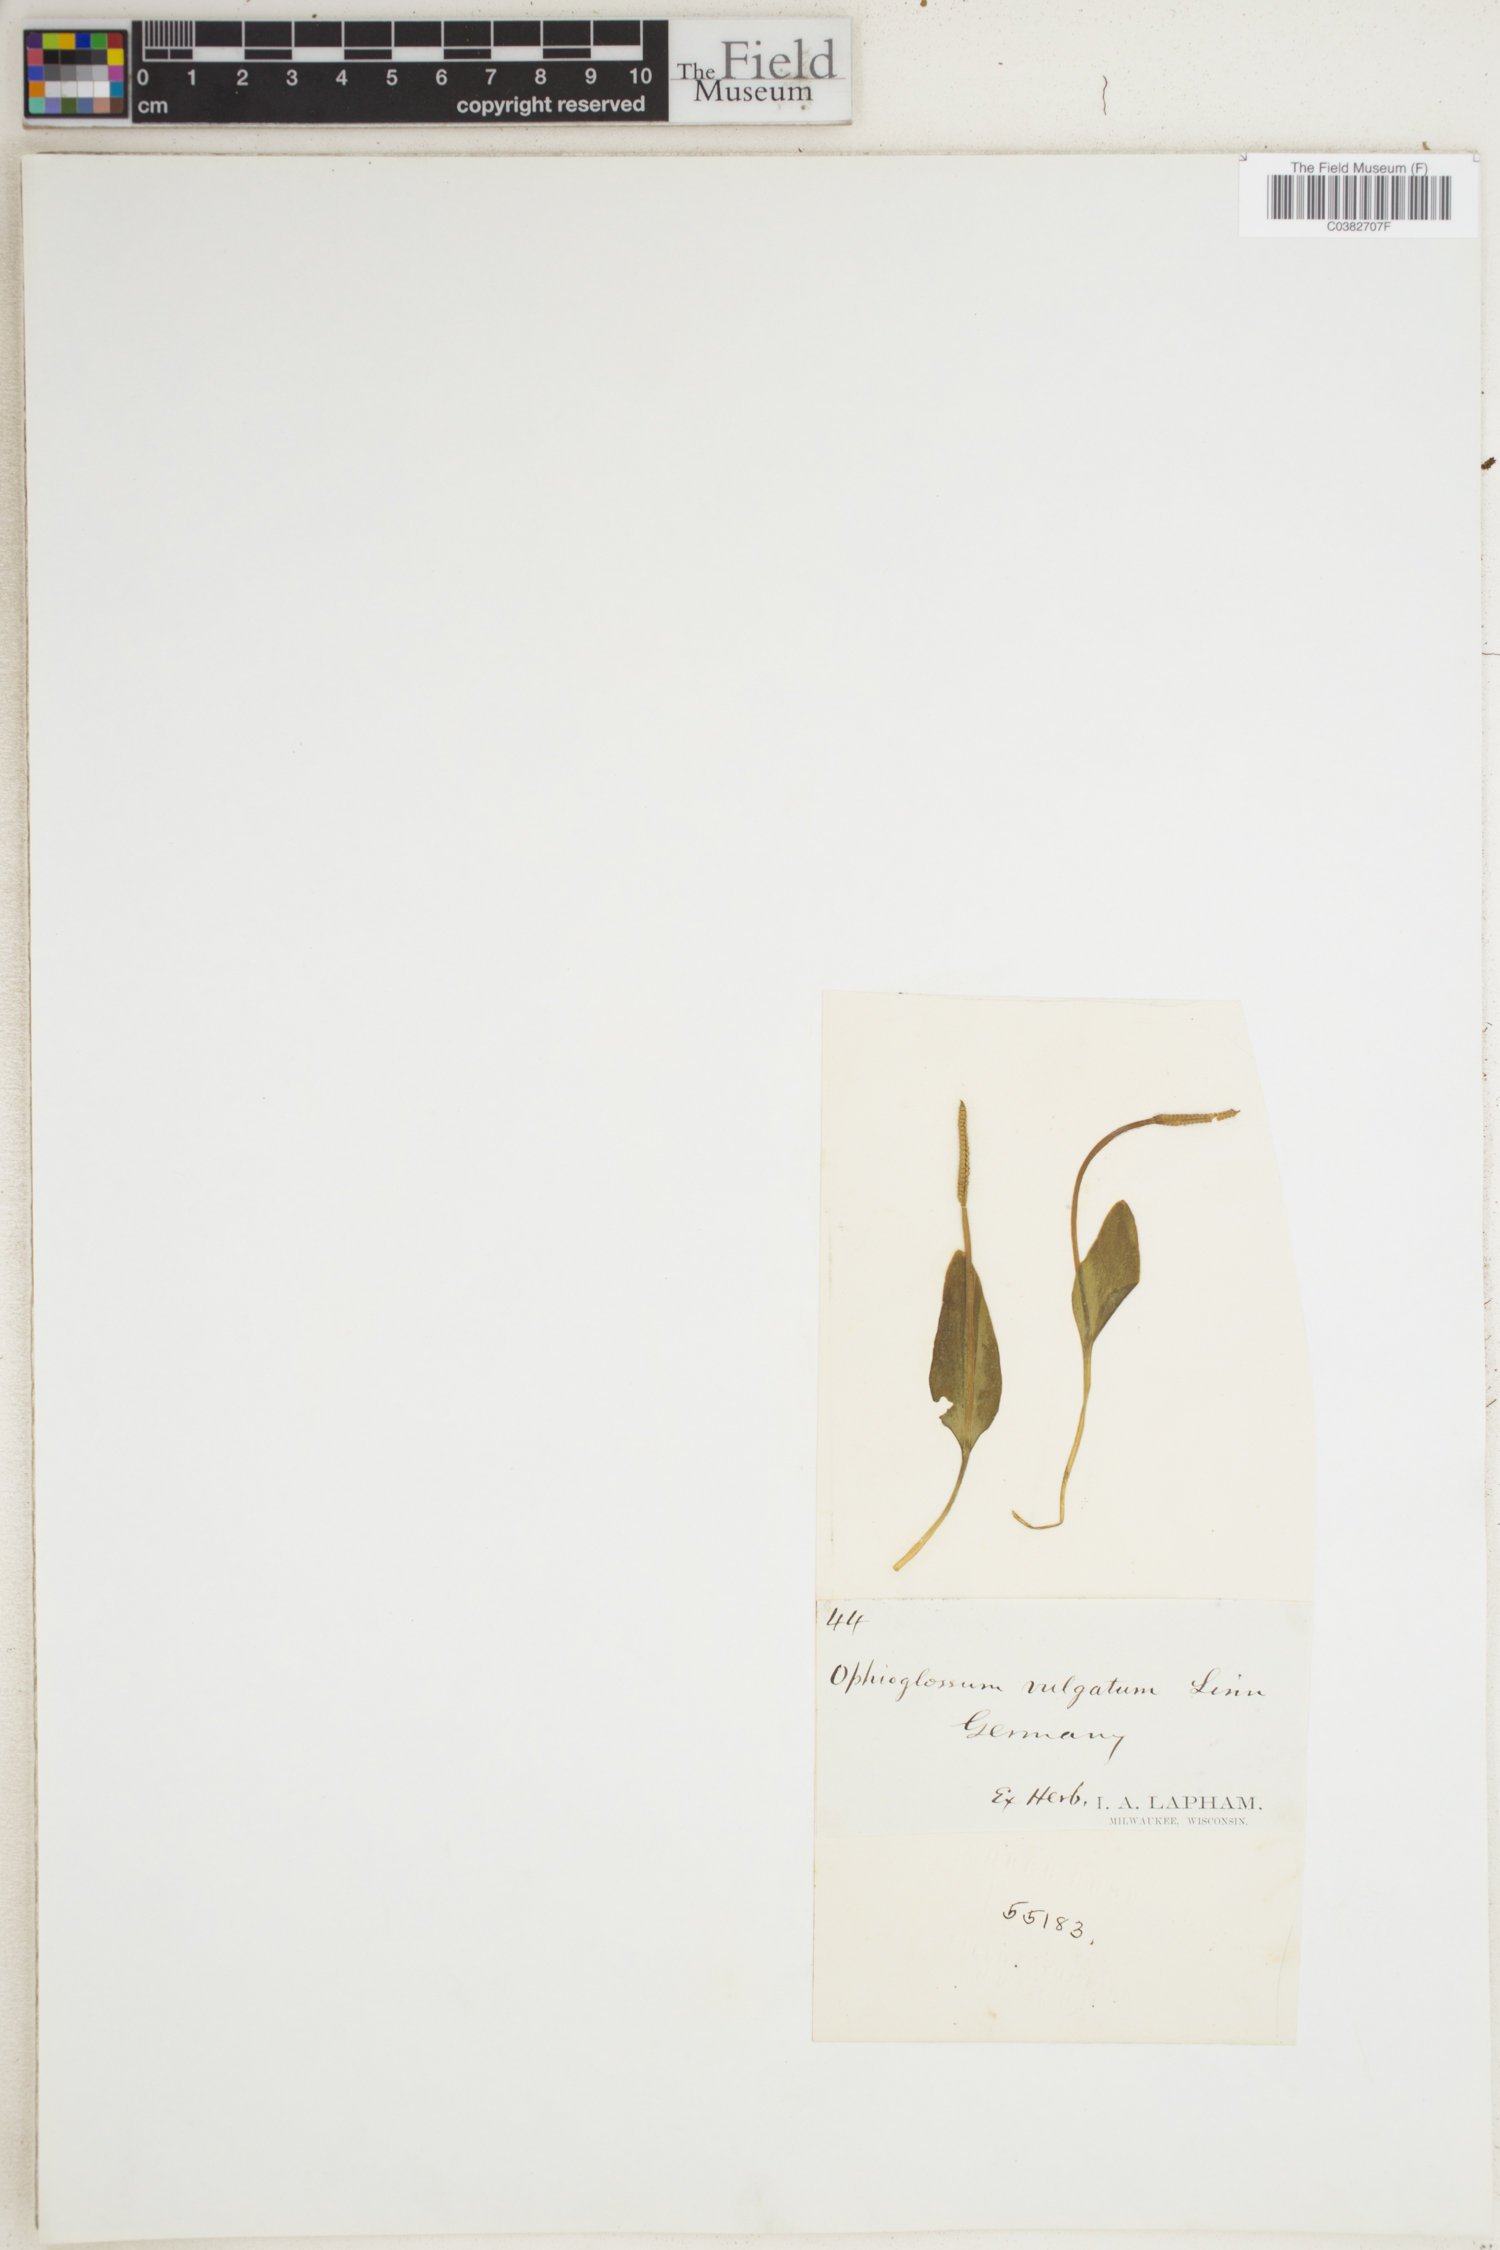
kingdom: Plantae
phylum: Tracheophyta
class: Polypodiopsida
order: Ophioglossales
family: Ophioglossaceae
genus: Ophioglossum
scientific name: Ophioglossum vulgatum
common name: Adder's-tongue
